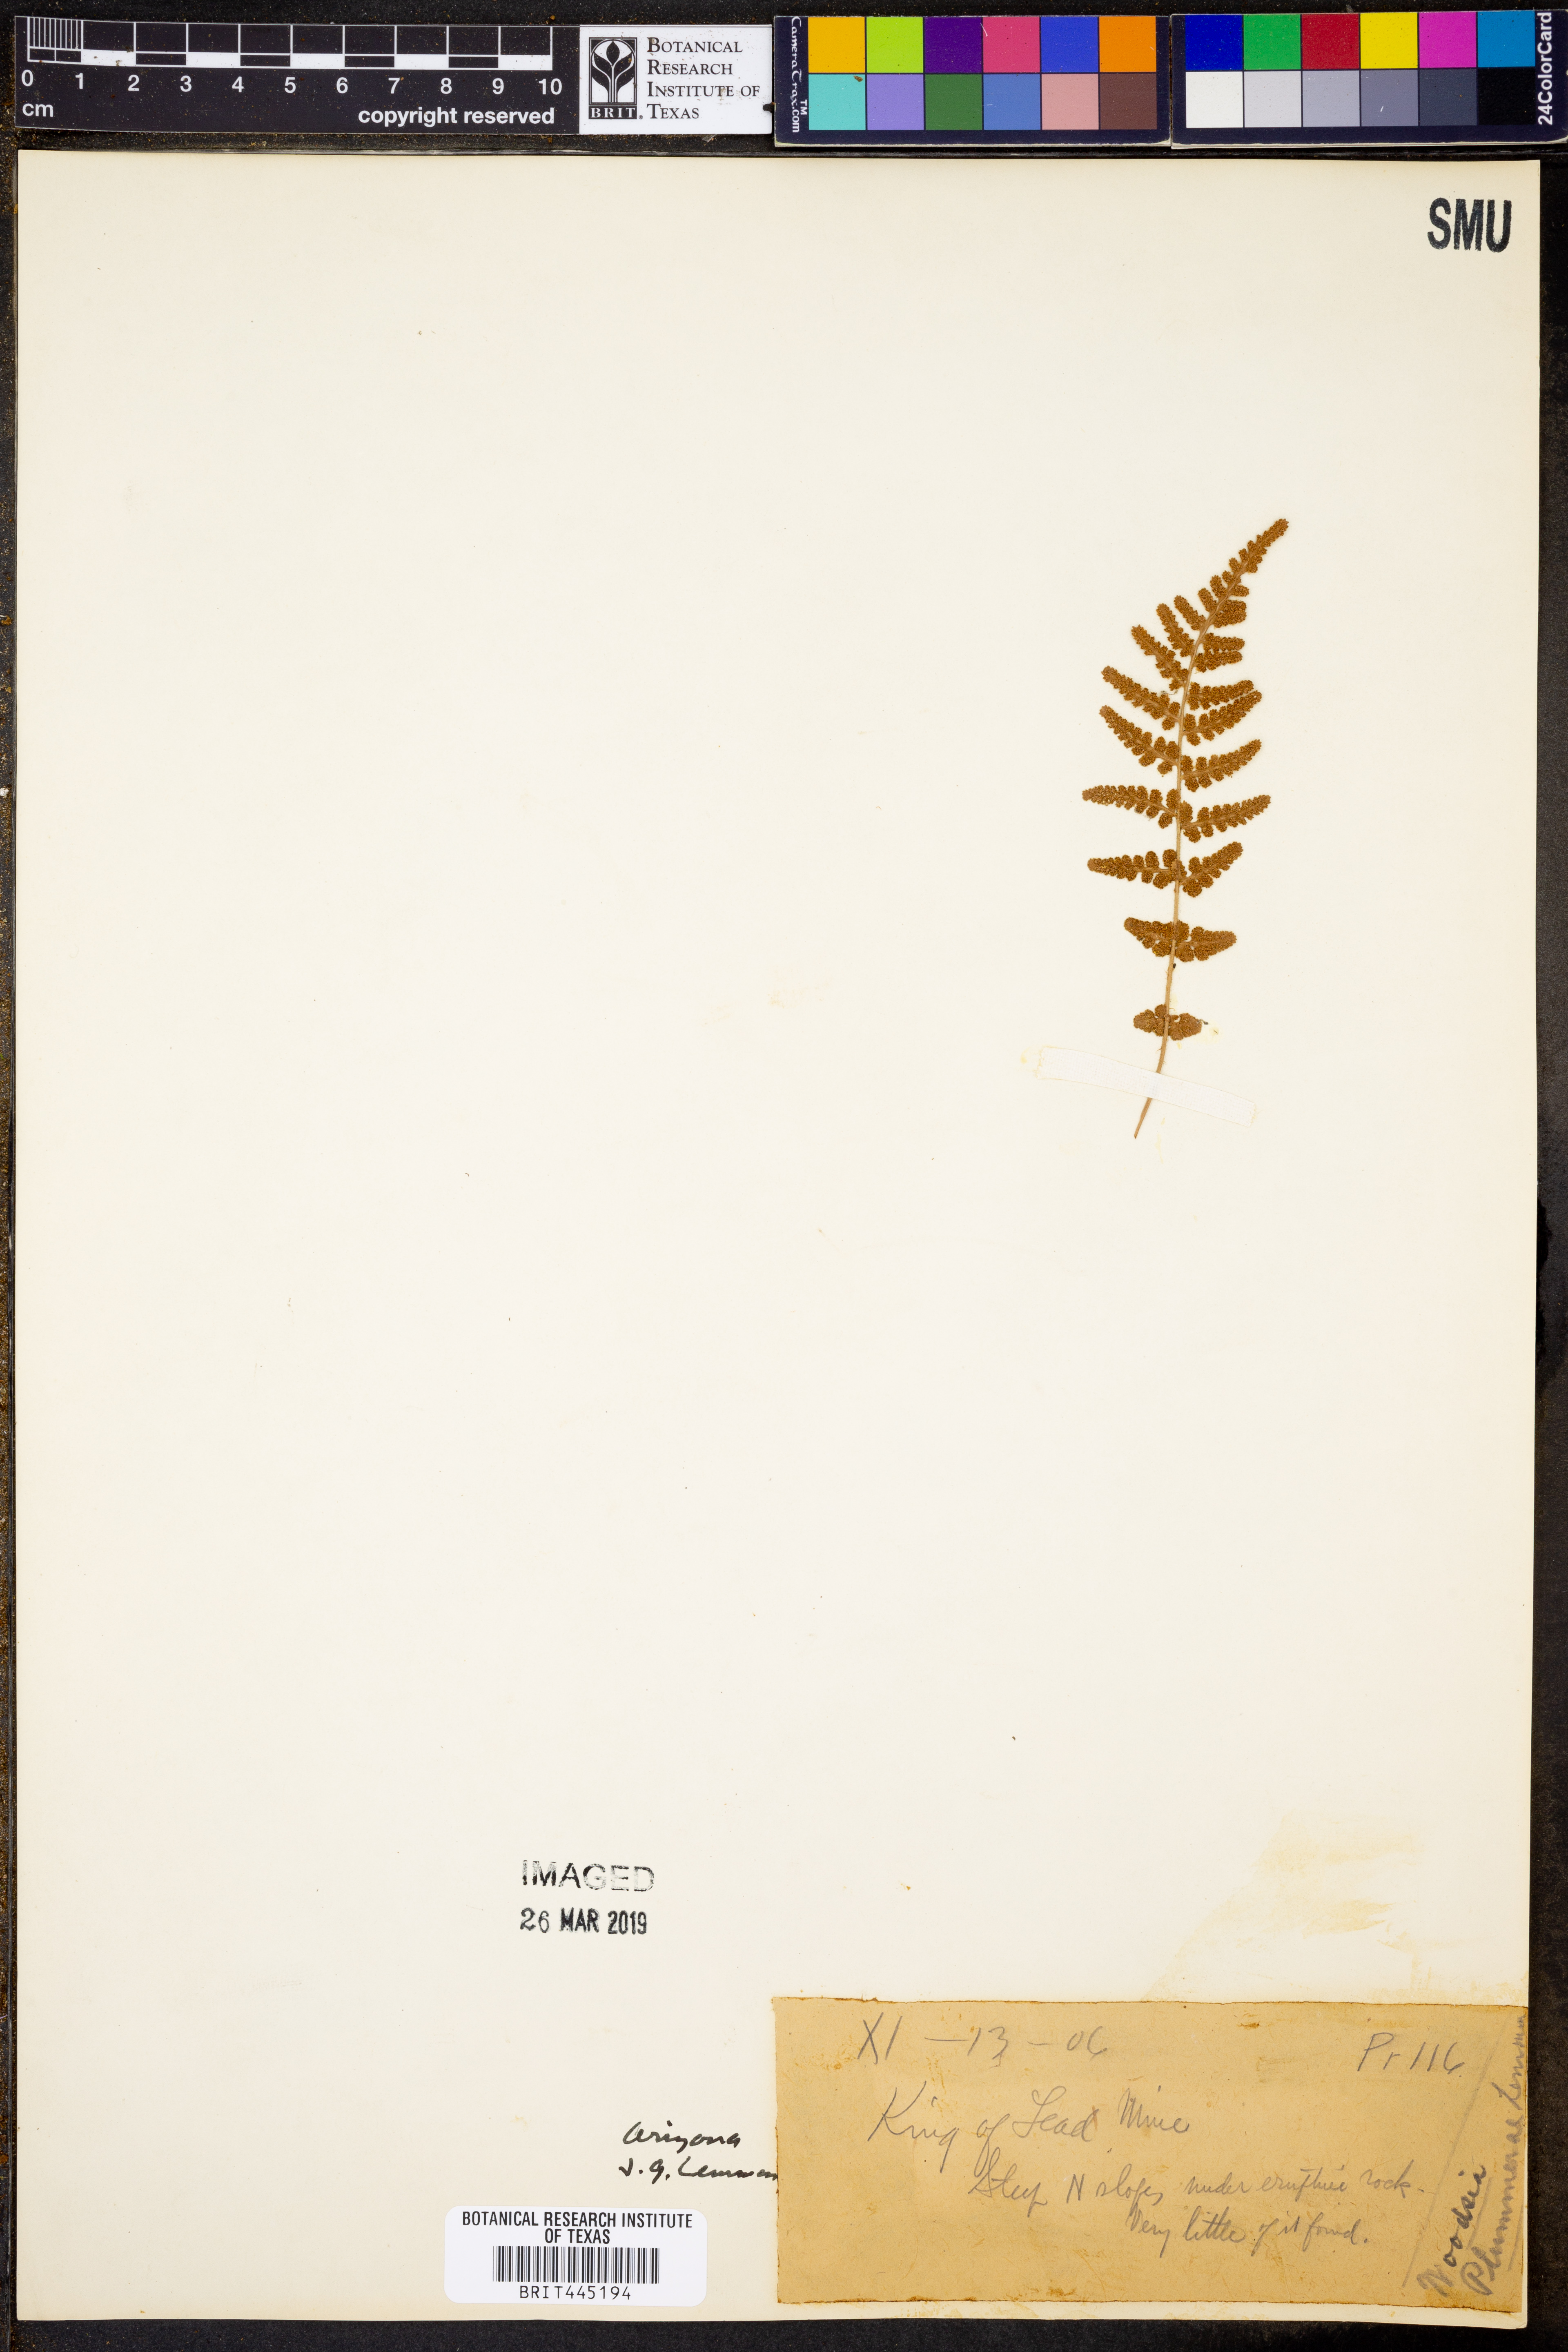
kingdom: Plantae
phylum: Tracheophyta
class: Polypodiopsida
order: Polypodiales
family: Woodsiaceae
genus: Physematium
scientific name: Physematium plummerae
